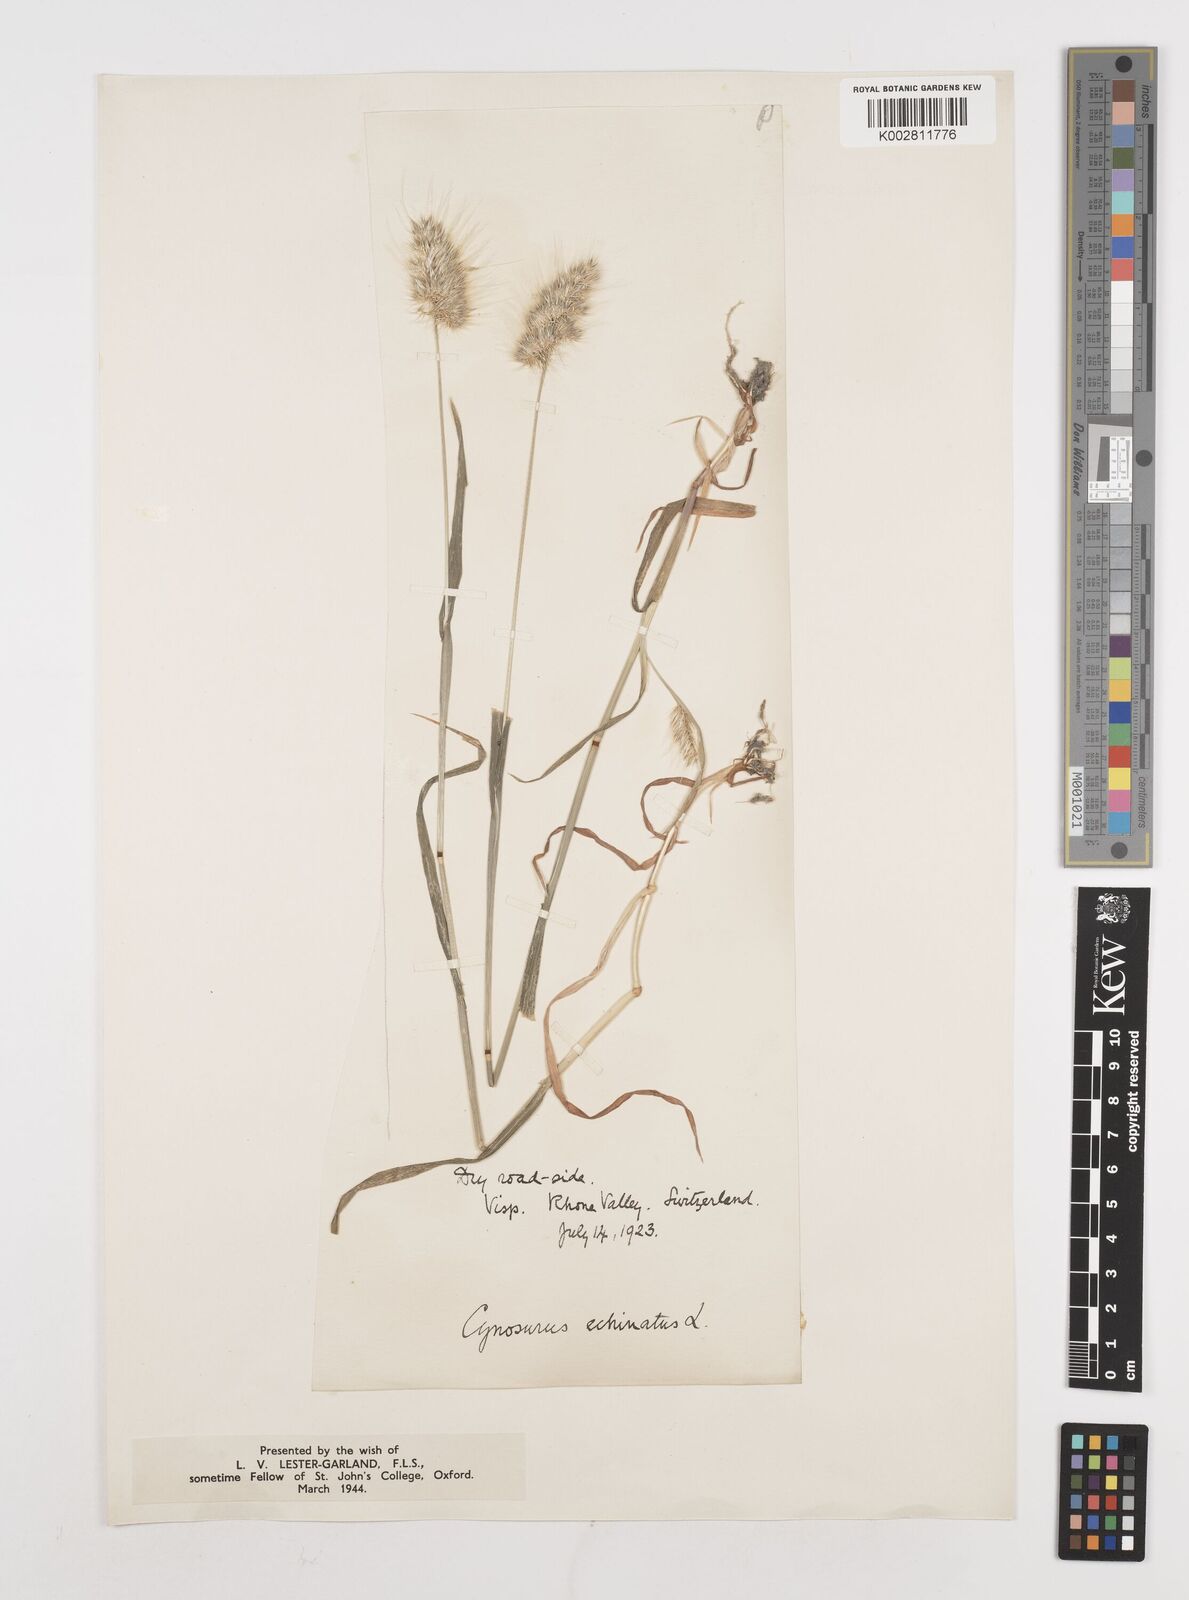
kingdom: Plantae
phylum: Tracheophyta
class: Liliopsida
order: Poales
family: Poaceae
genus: Cynosurus
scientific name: Cynosurus echinatus
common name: Rough dog's-tail
